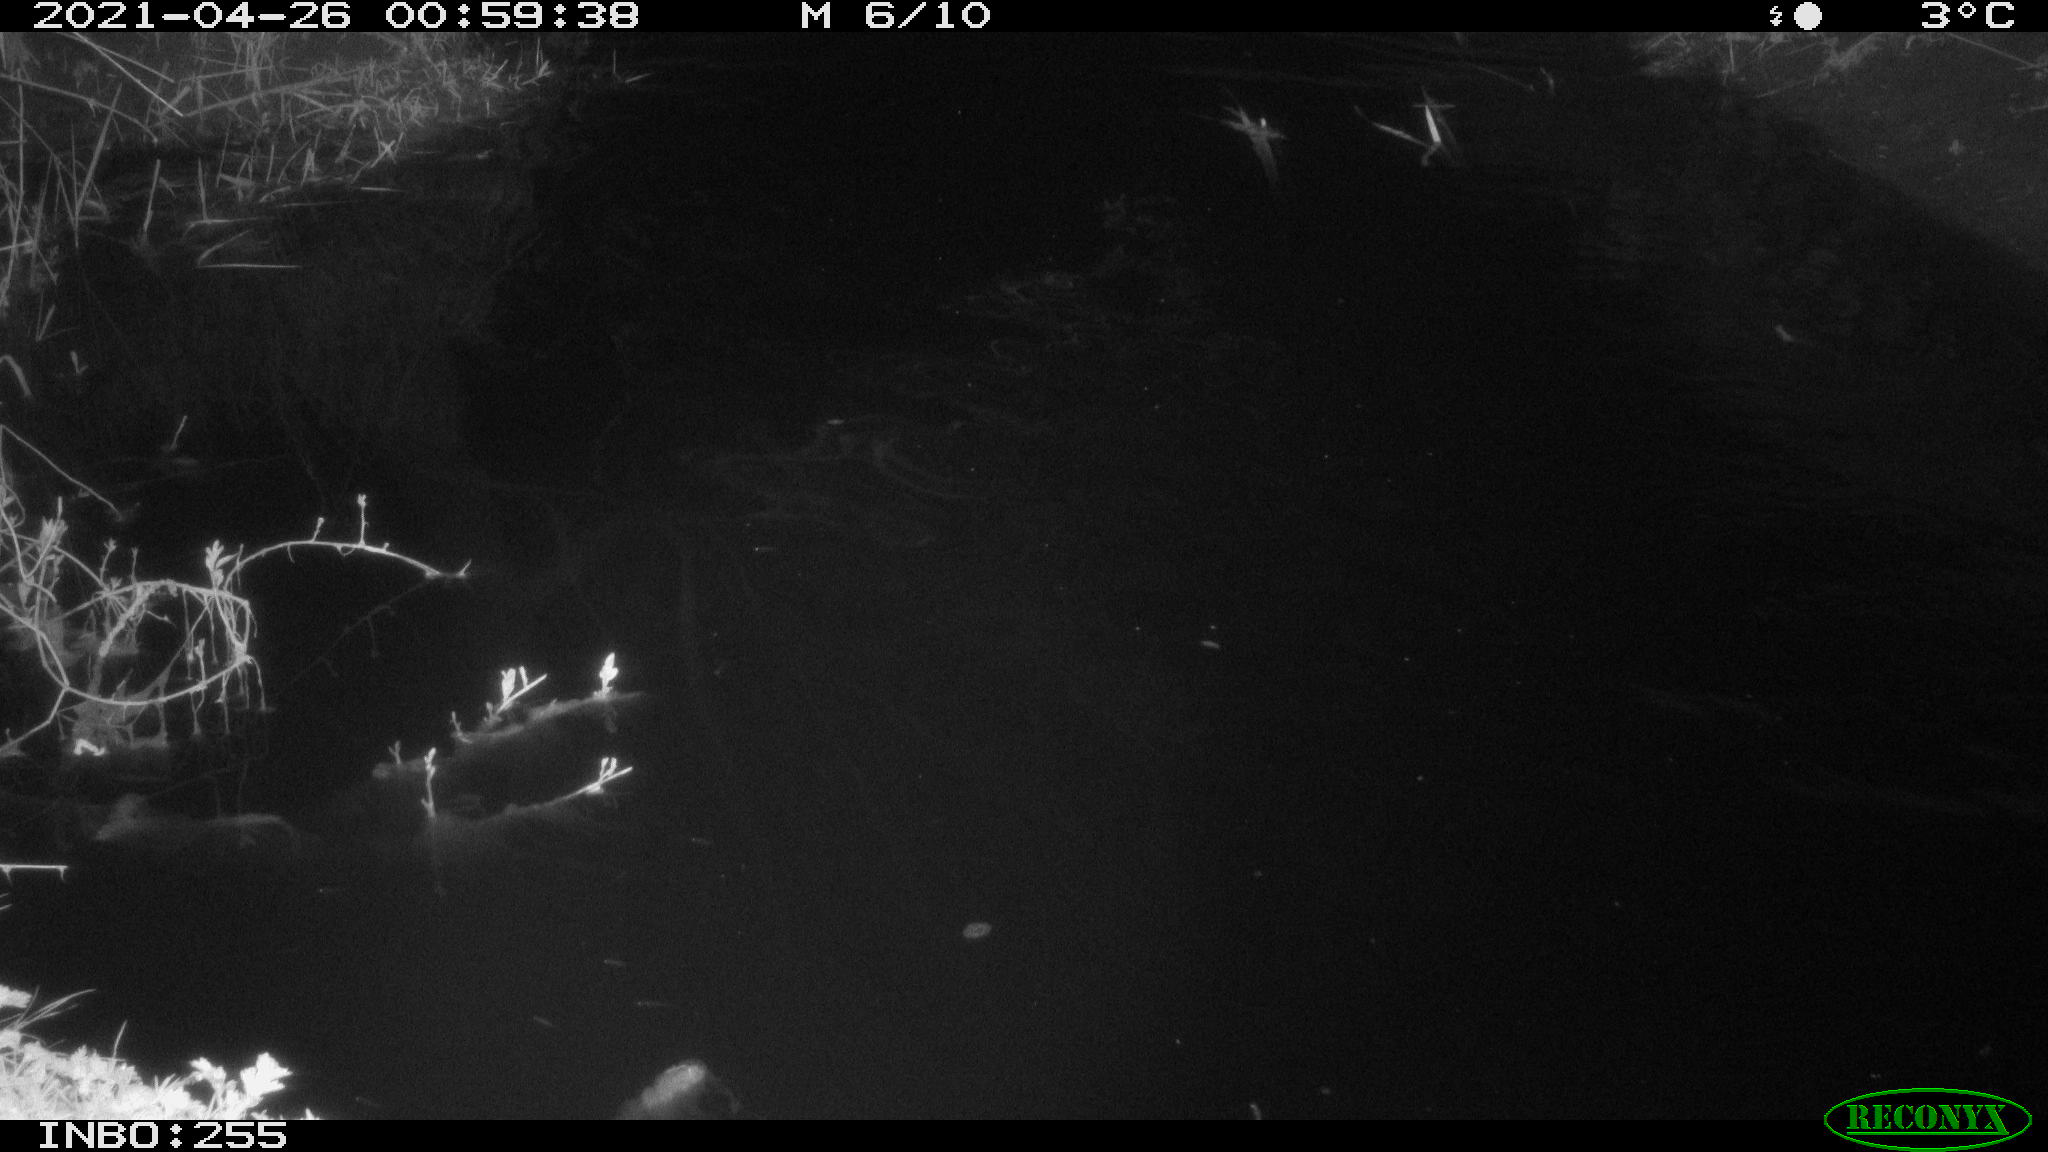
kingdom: Animalia
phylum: Chordata
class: Aves
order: Anseriformes
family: Anatidae
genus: Anas
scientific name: Anas platyrhynchos
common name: Mallard
